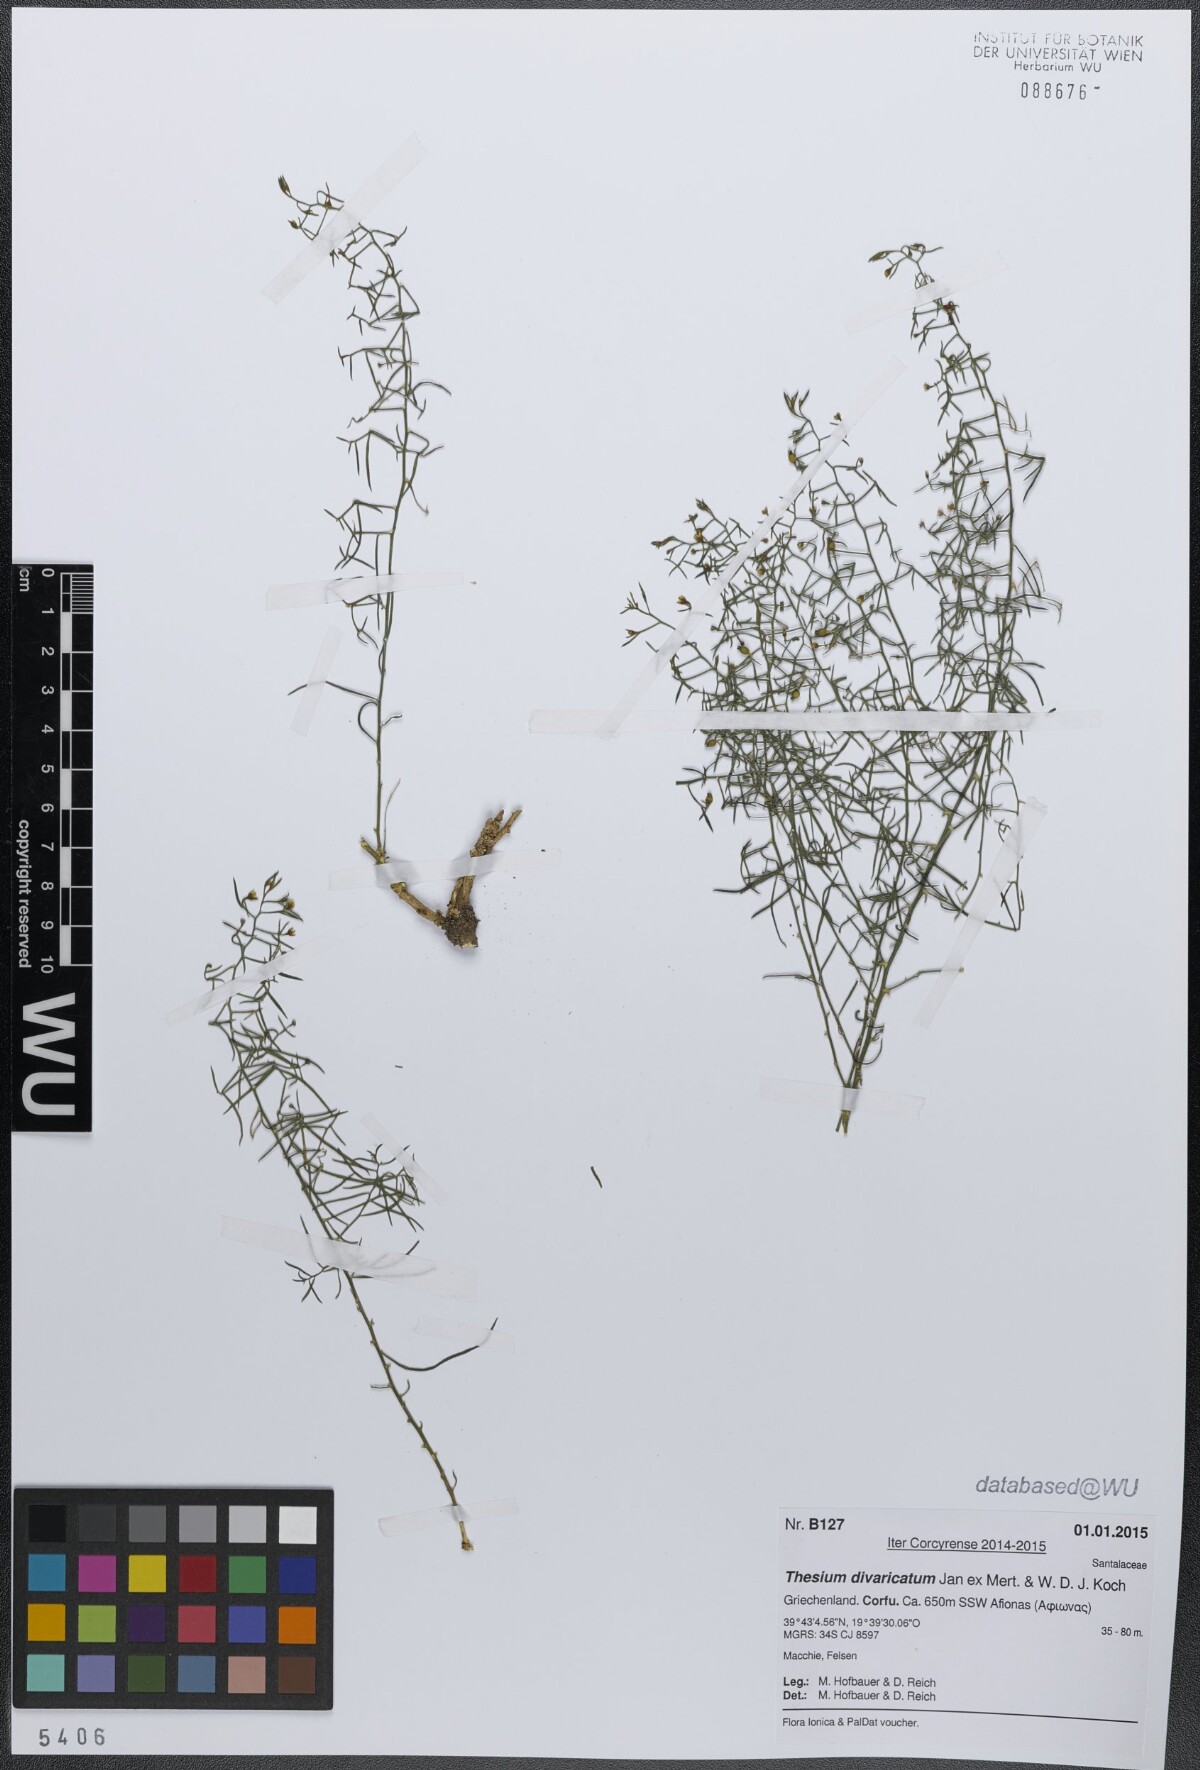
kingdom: Plantae
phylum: Tracheophyta
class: Magnoliopsida
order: Santalales
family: Thesiaceae
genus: Thesium
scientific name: Thesium divaricatum
